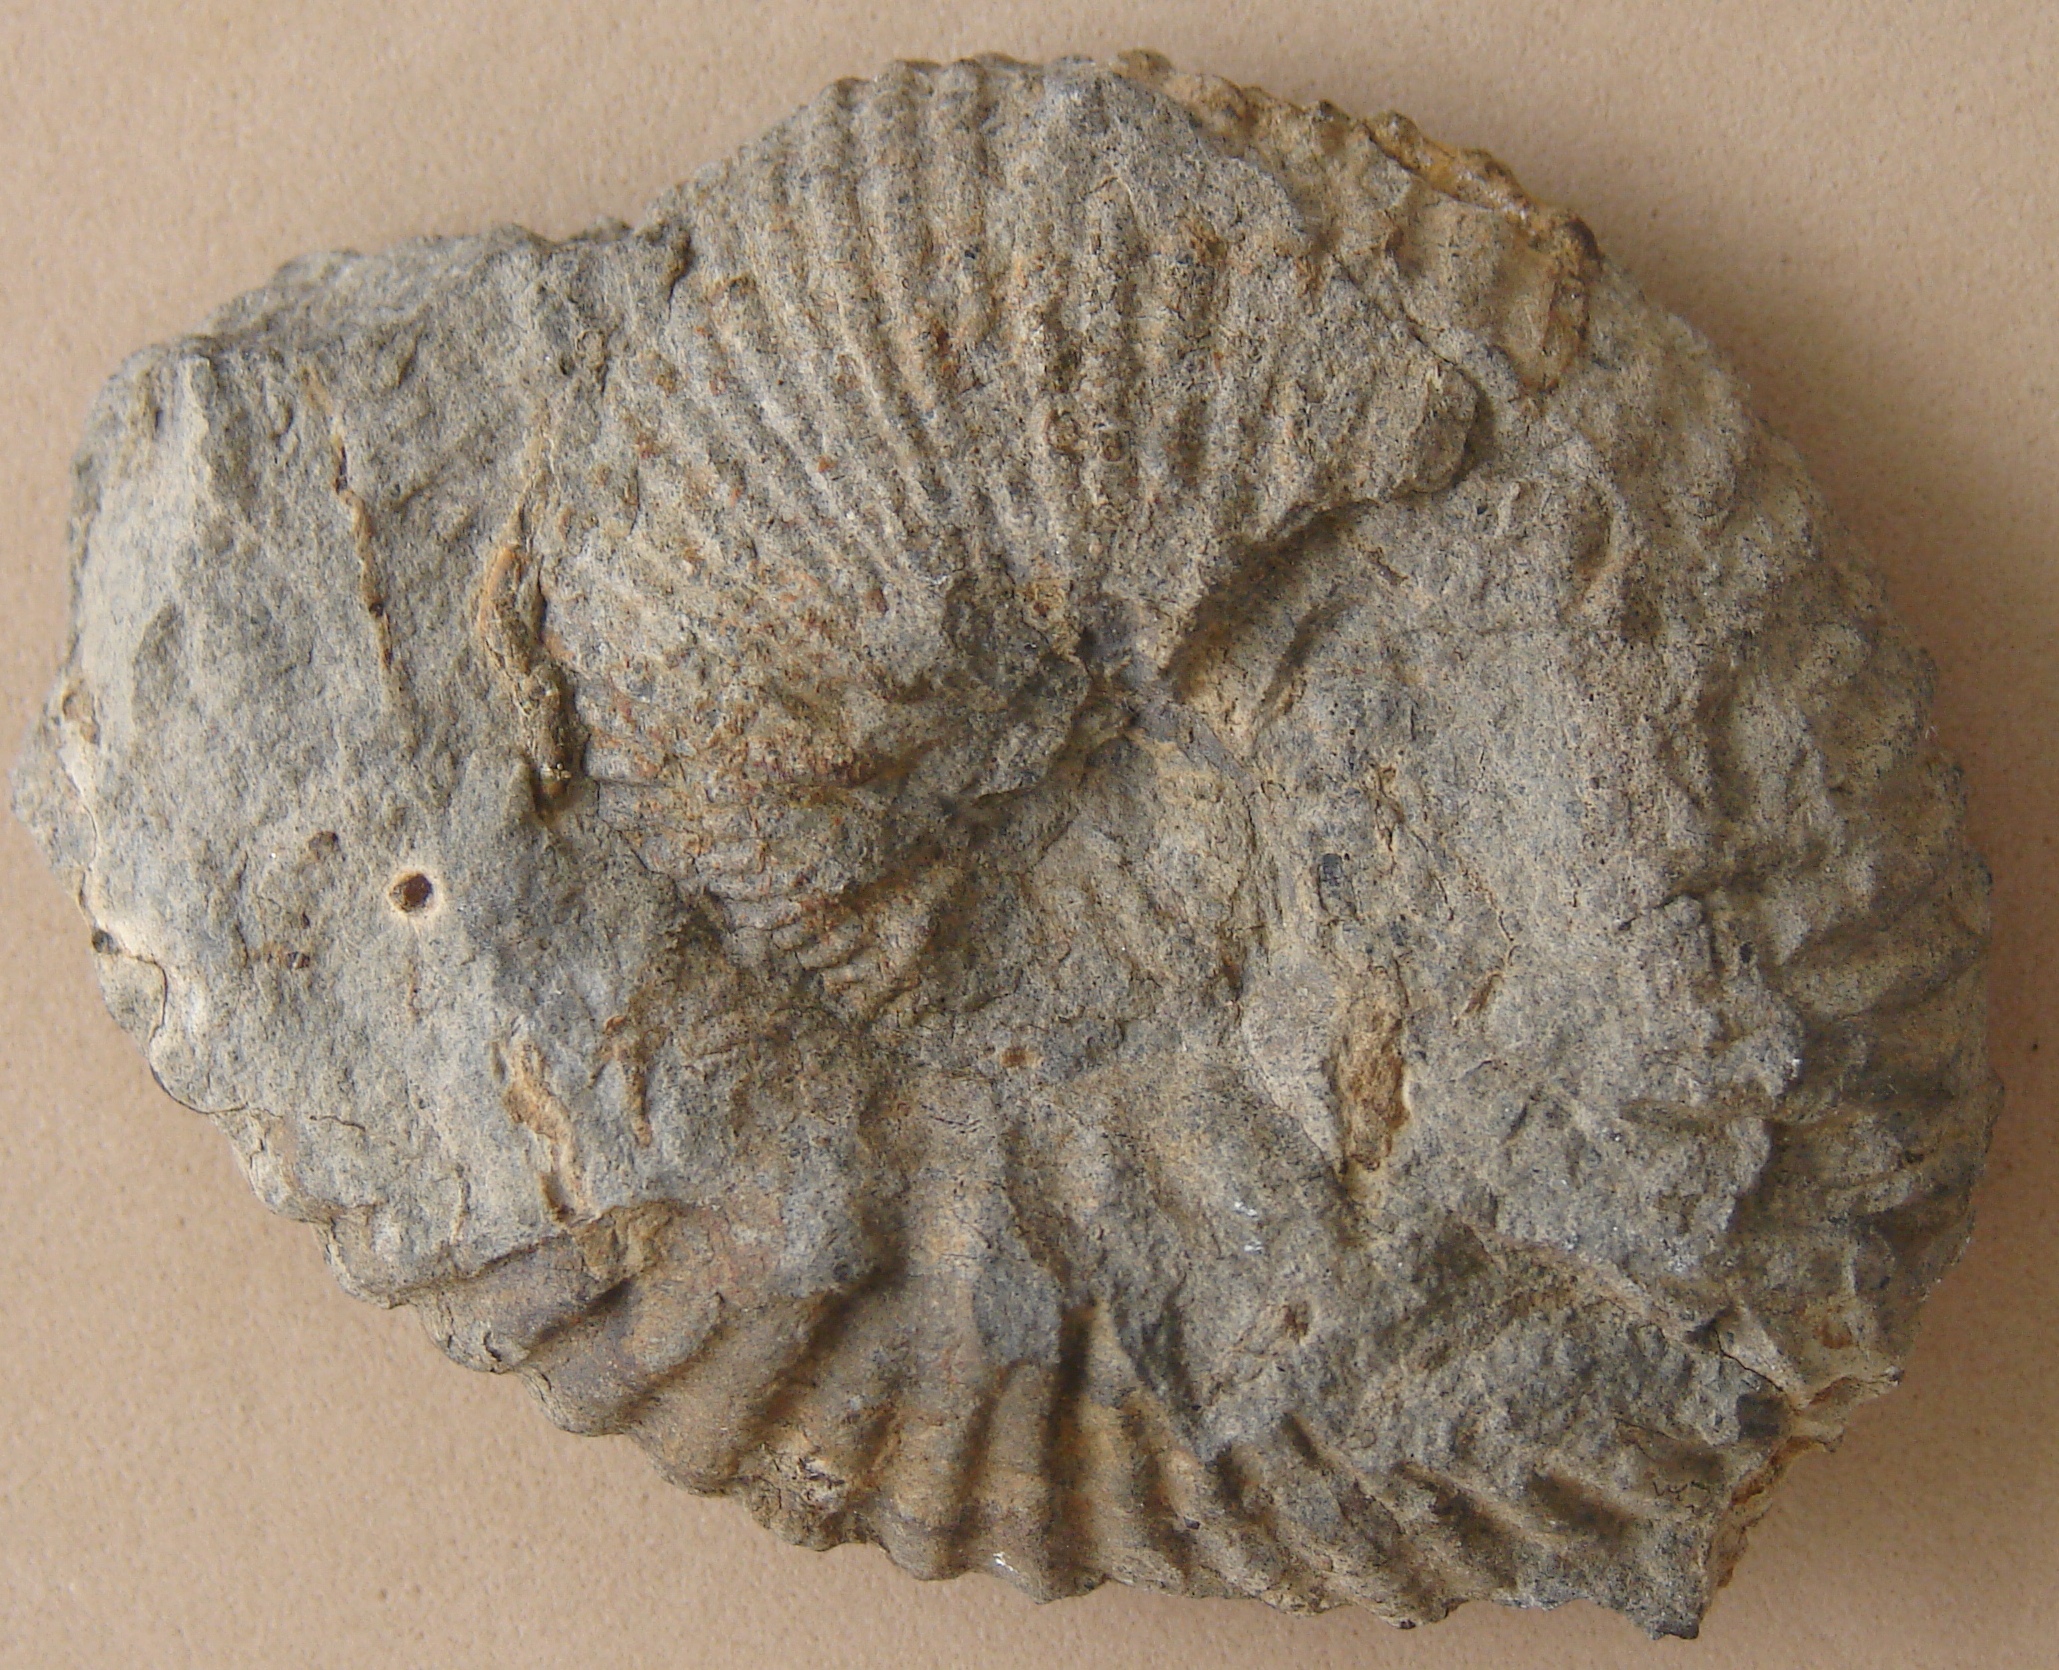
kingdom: Animalia
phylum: Mollusca
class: Cephalopoda
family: Otoitidae
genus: Otoites
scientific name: Otoites
